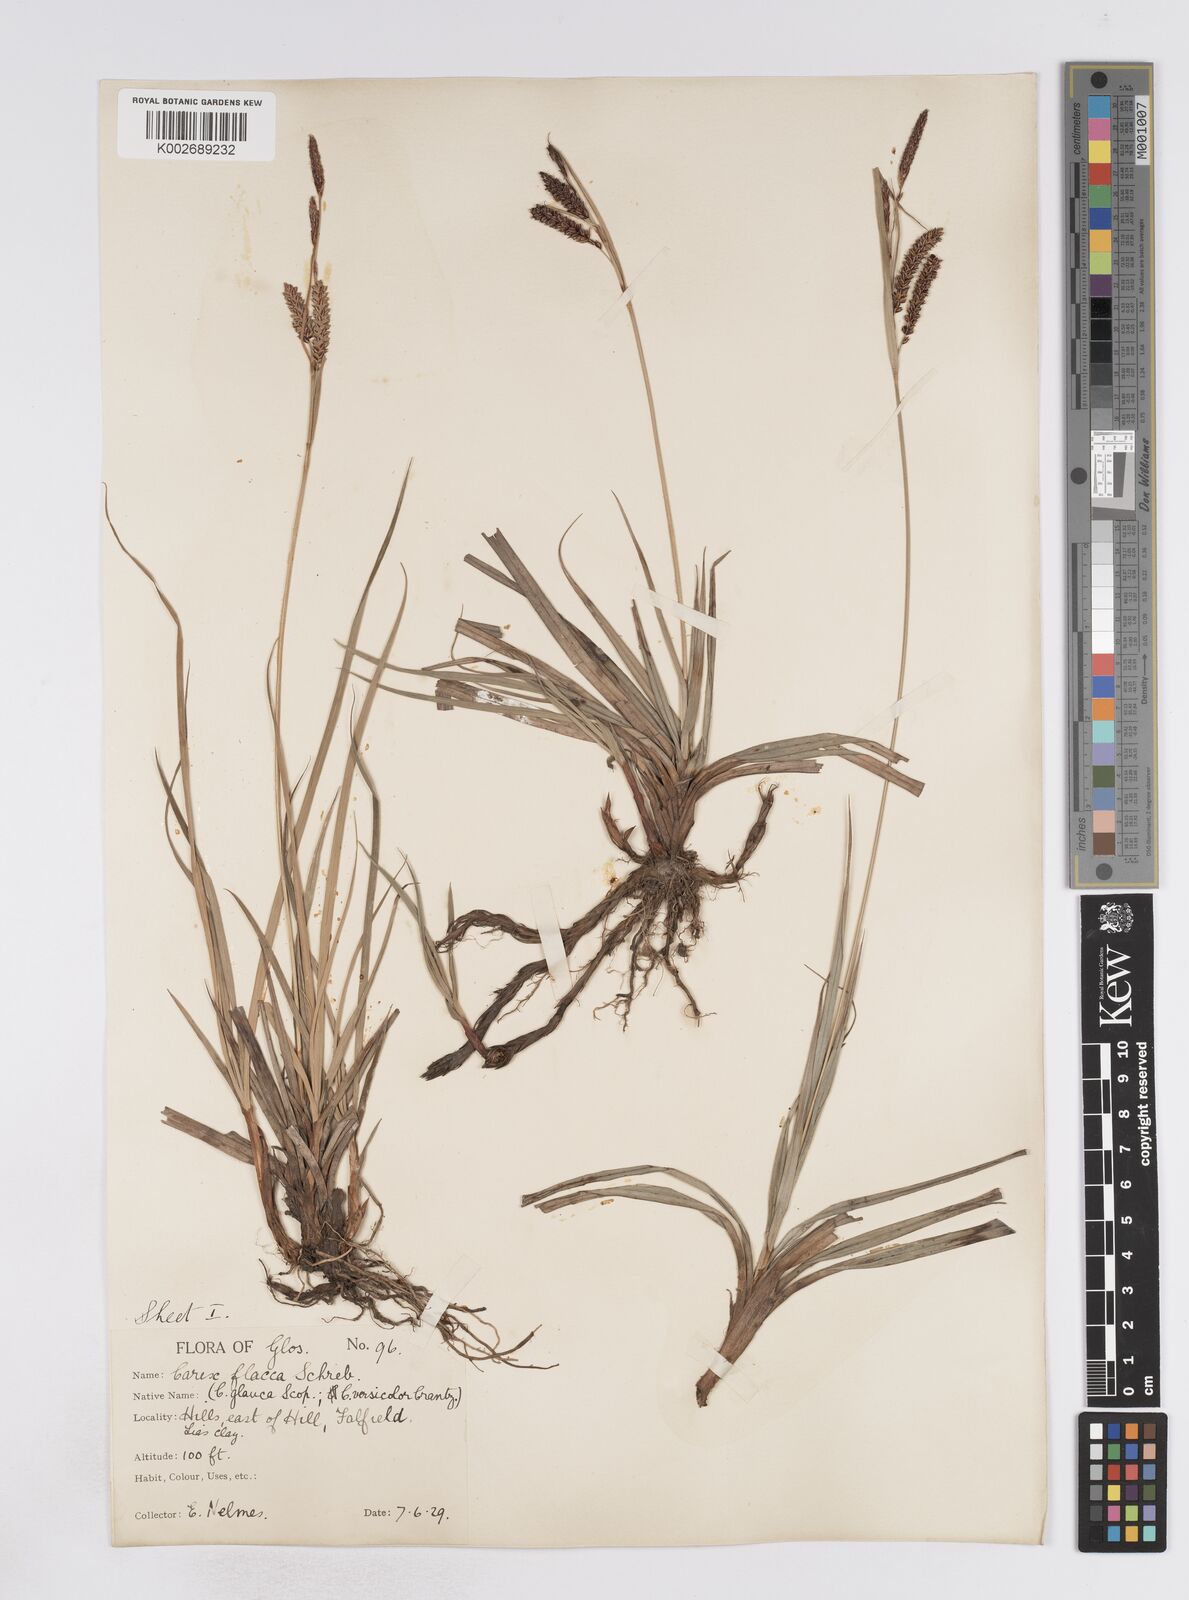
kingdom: Plantae
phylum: Tracheophyta
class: Liliopsida
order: Poales
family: Cyperaceae
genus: Carex
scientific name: Carex flacca
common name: Glaucous sedge
